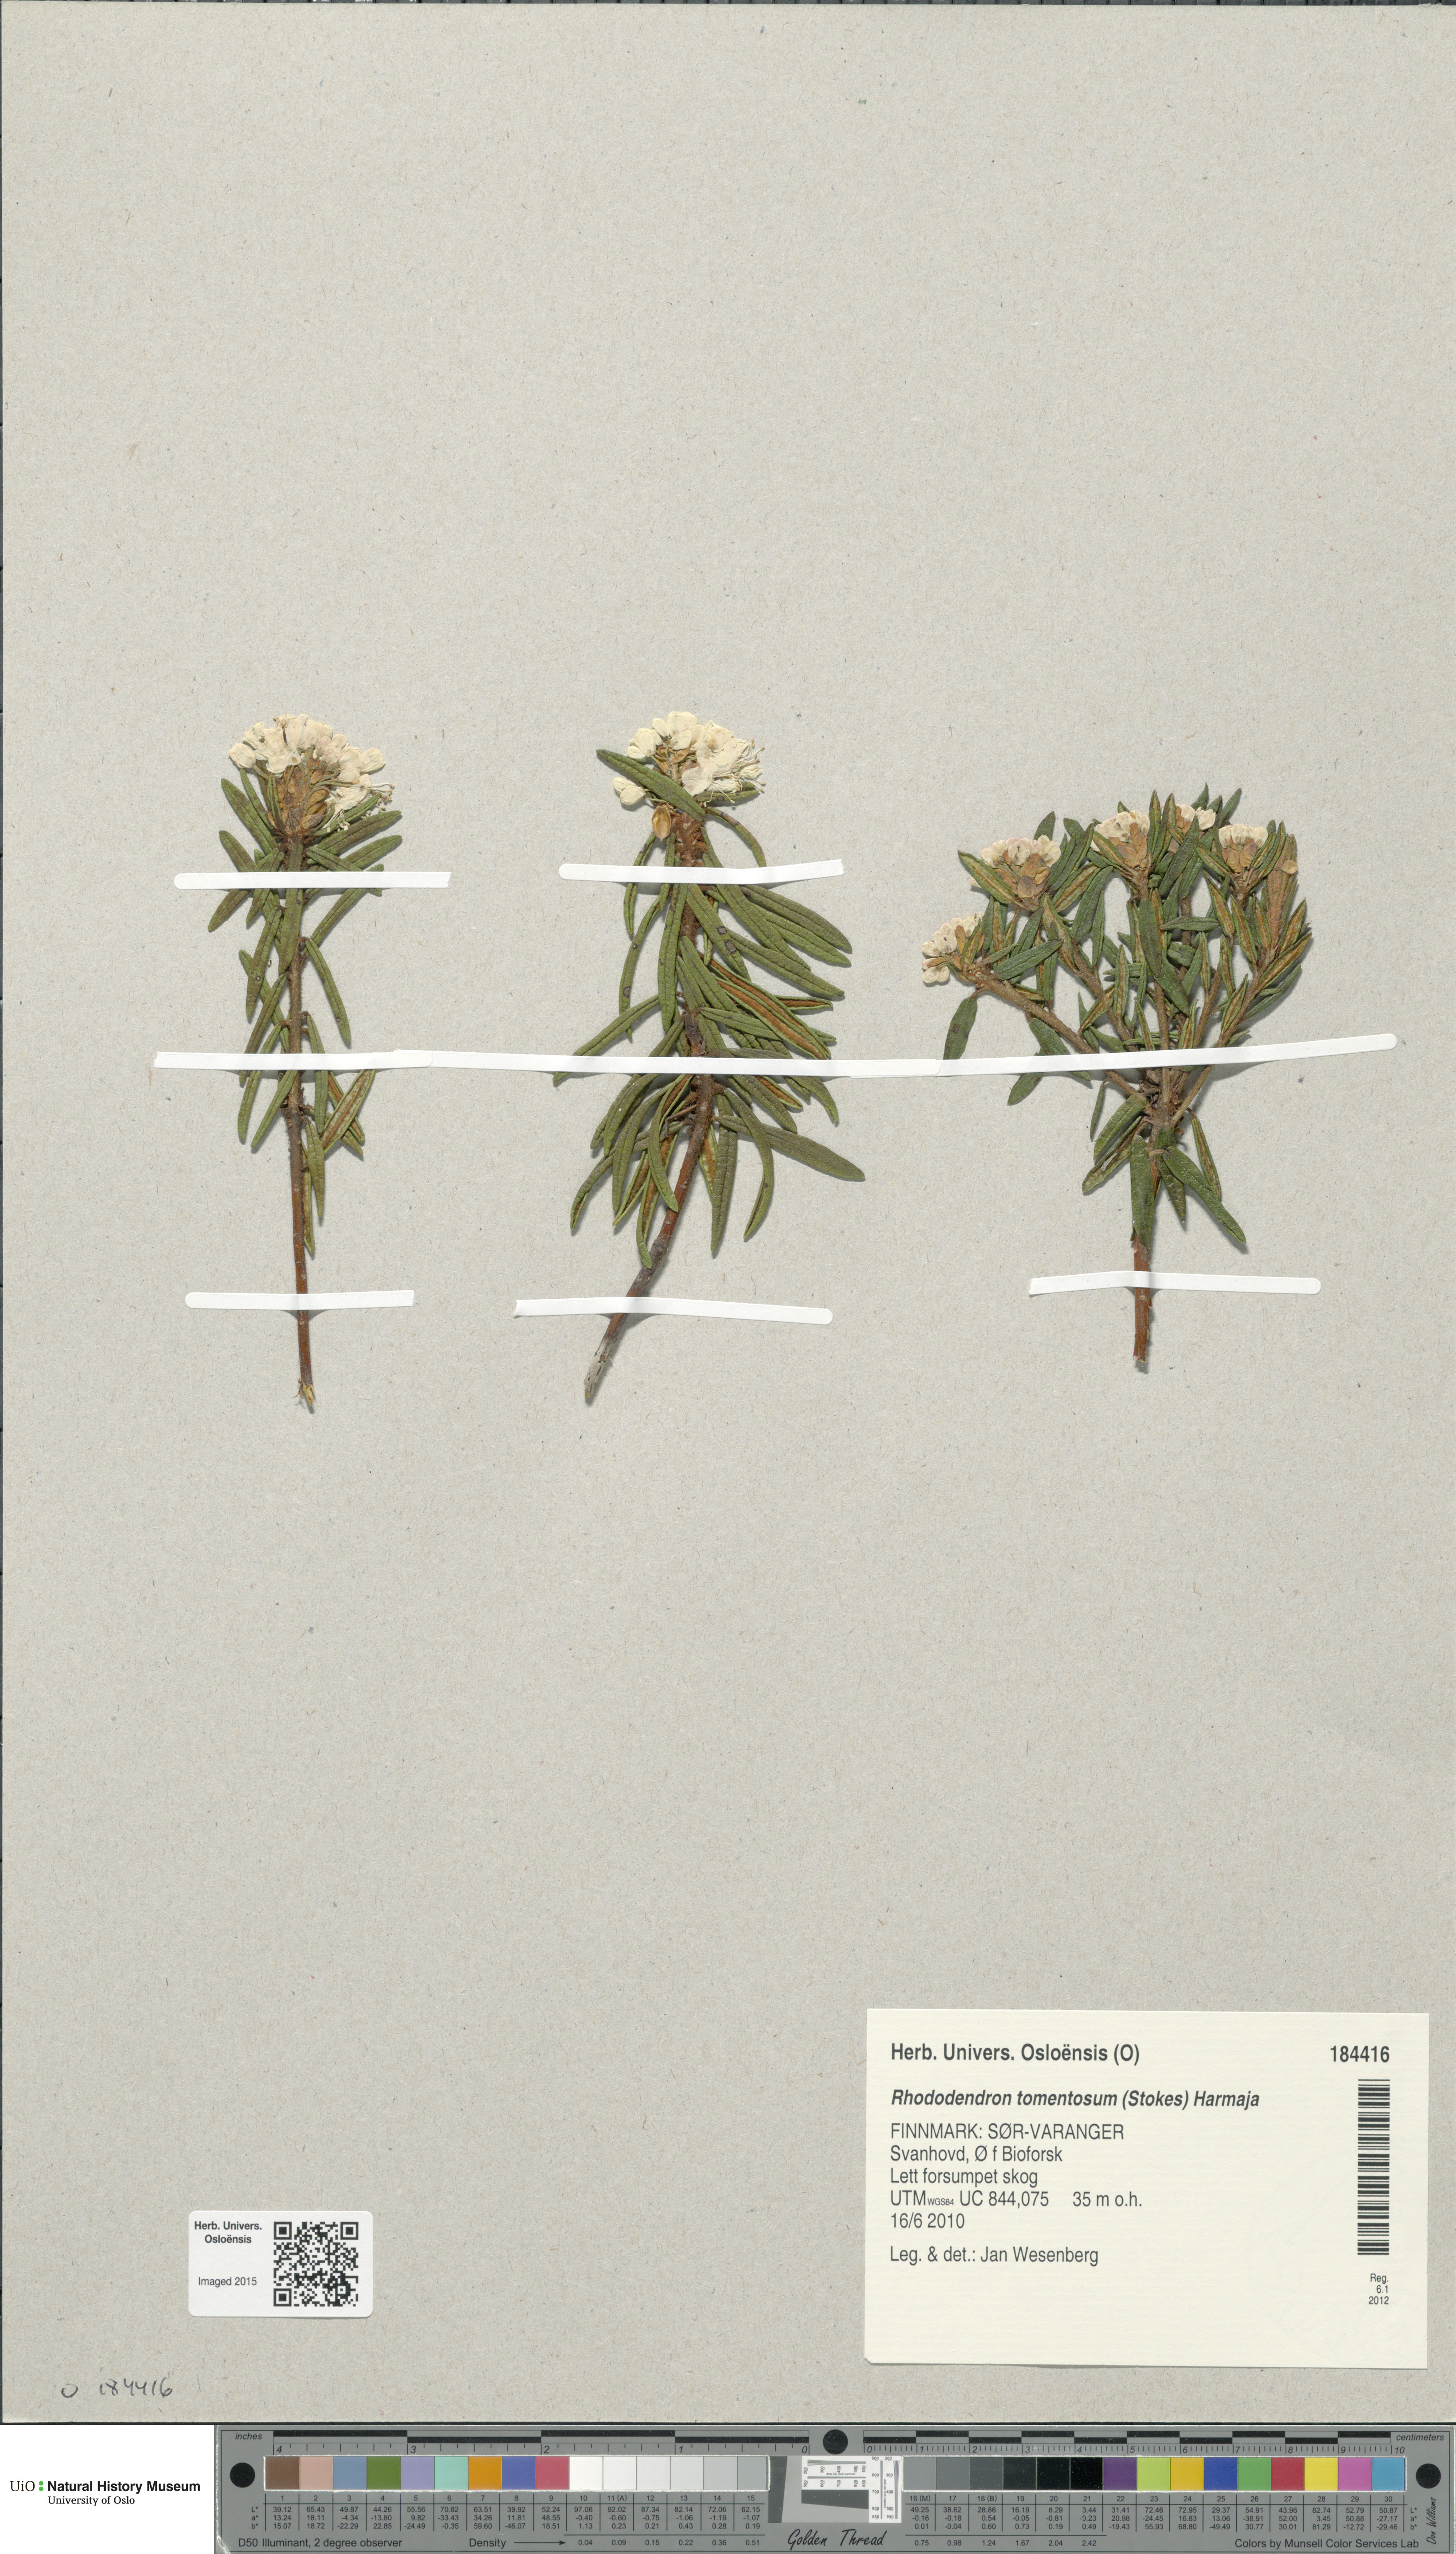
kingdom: Plantae
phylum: Tracheophyta
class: Magnoliopsida
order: Ericales
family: Ericaceae
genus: Rhododendron
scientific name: Rhododendron tomentosum
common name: Marsh labrador tea
